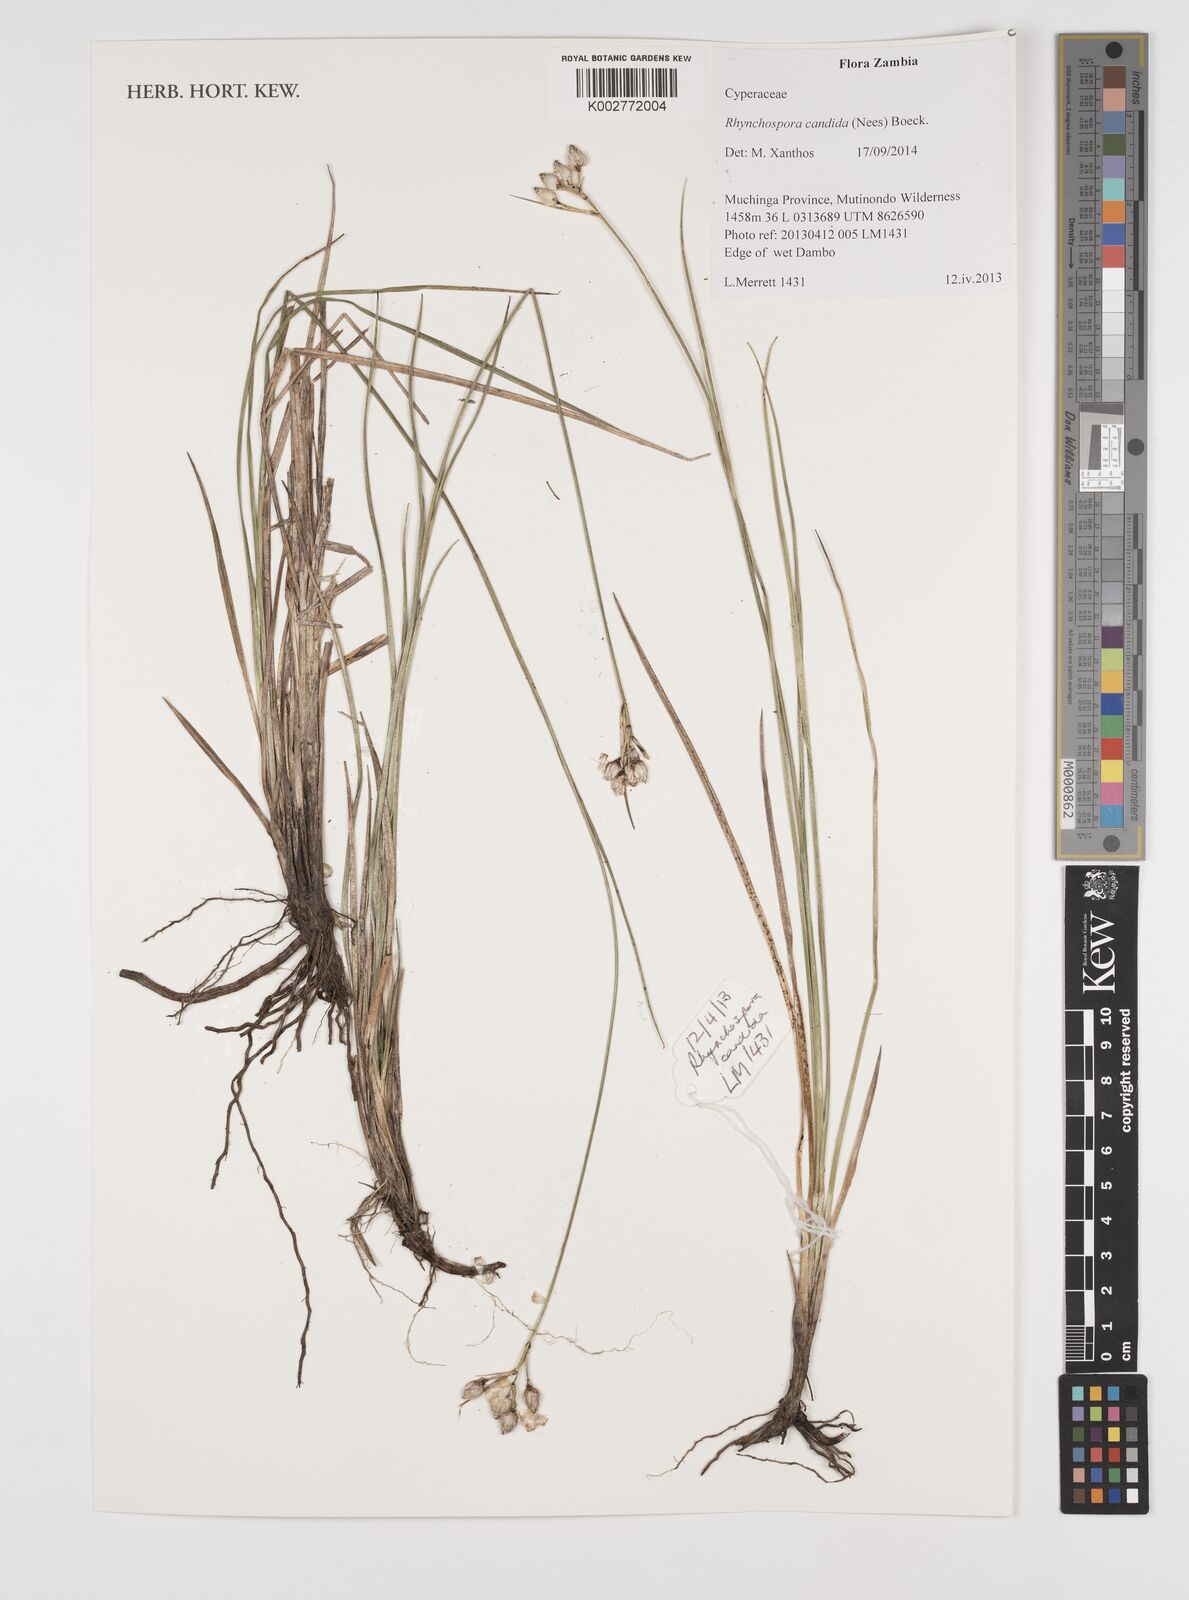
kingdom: Plantae
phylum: Tracheophyta
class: Liliopsida
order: Poales
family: Cyperaceae
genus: Rhynchospora
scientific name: Rhynchospora candida
